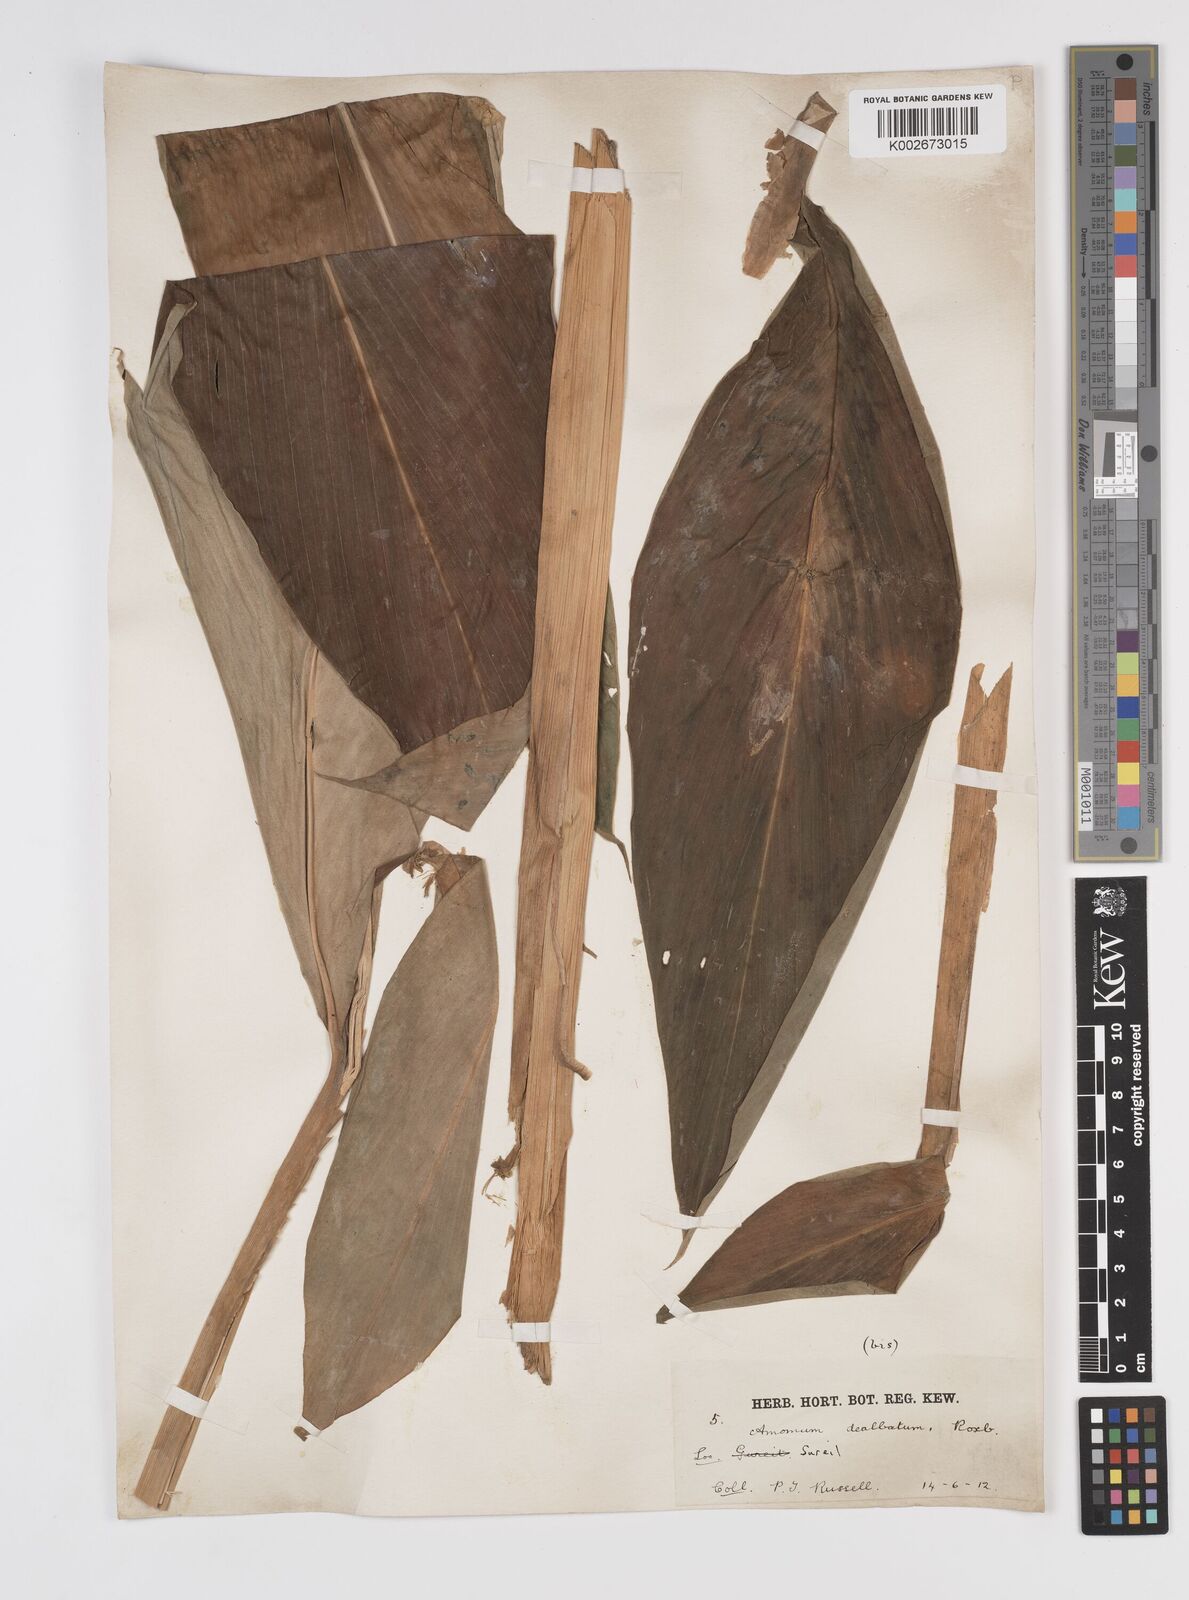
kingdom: Plantae
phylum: Tracheophyta
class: Liliopsida
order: Zingiberales
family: Zingiberaceae
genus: Amomum
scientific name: Amomum dealbatum
